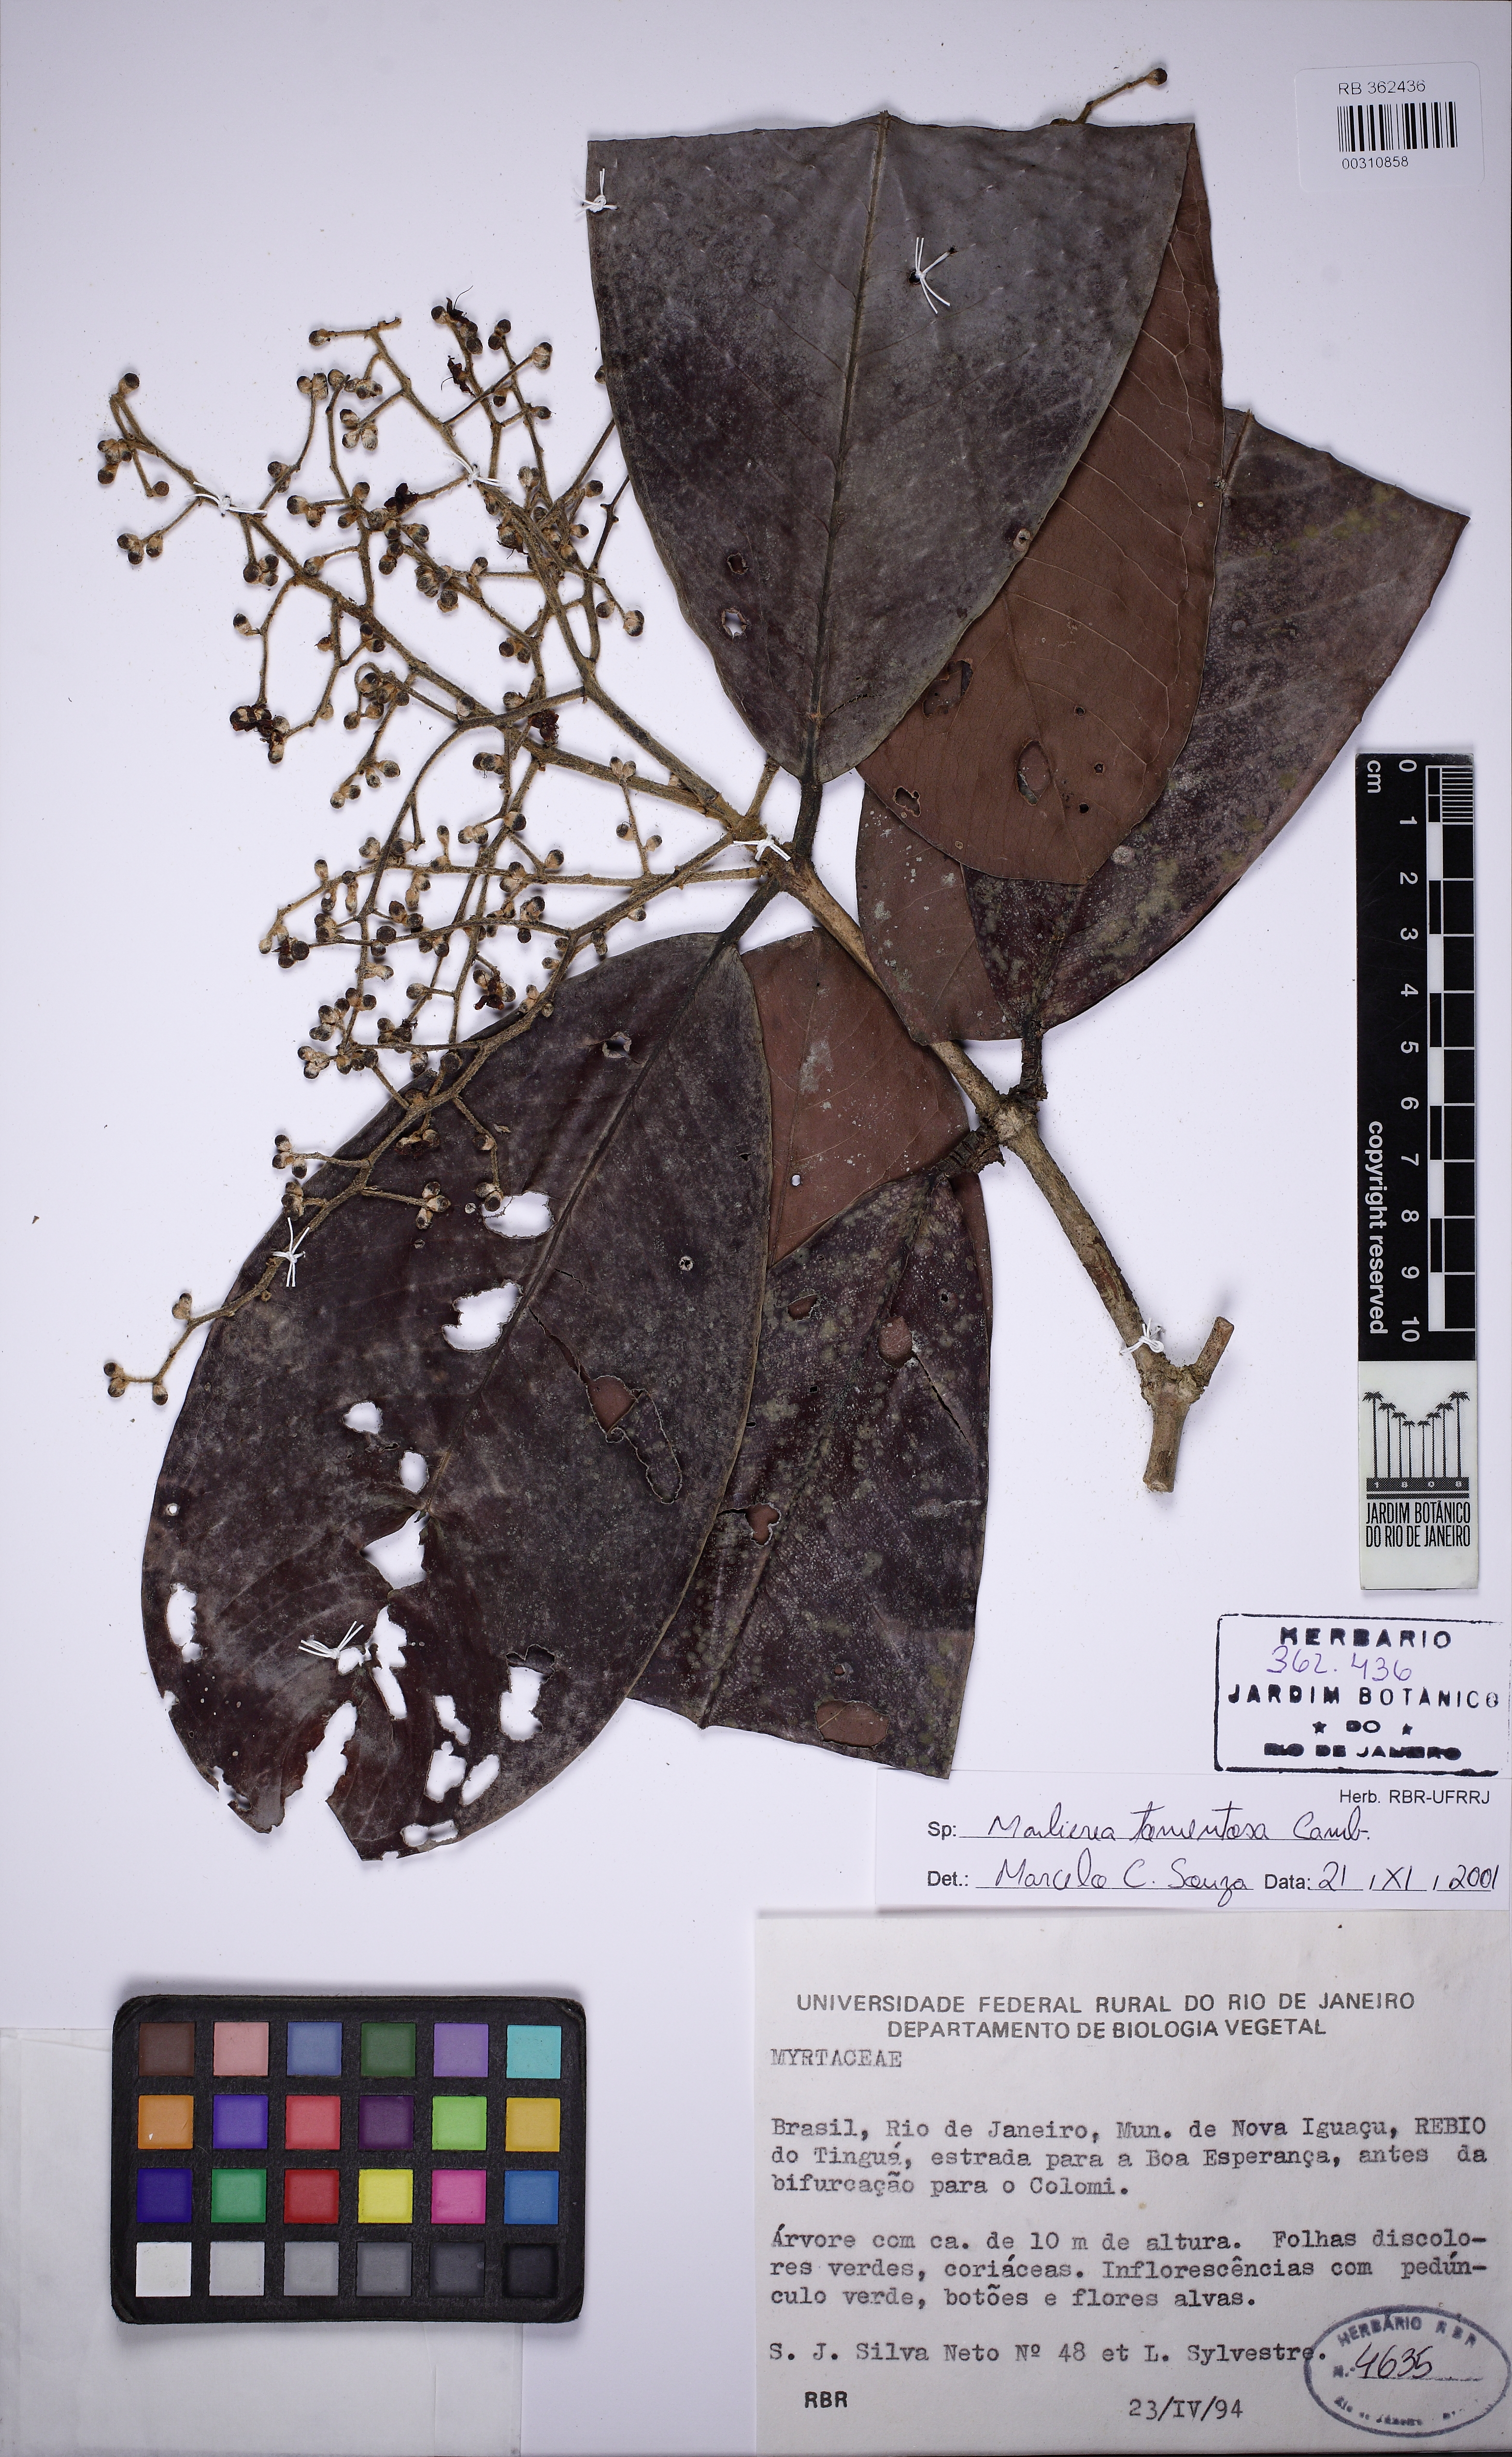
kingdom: Plantae
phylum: Tracheophyta
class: Magnoliopsida
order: Myrtales
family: Myrtaceae
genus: Myrcia
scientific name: Myrcia neotomentosa
